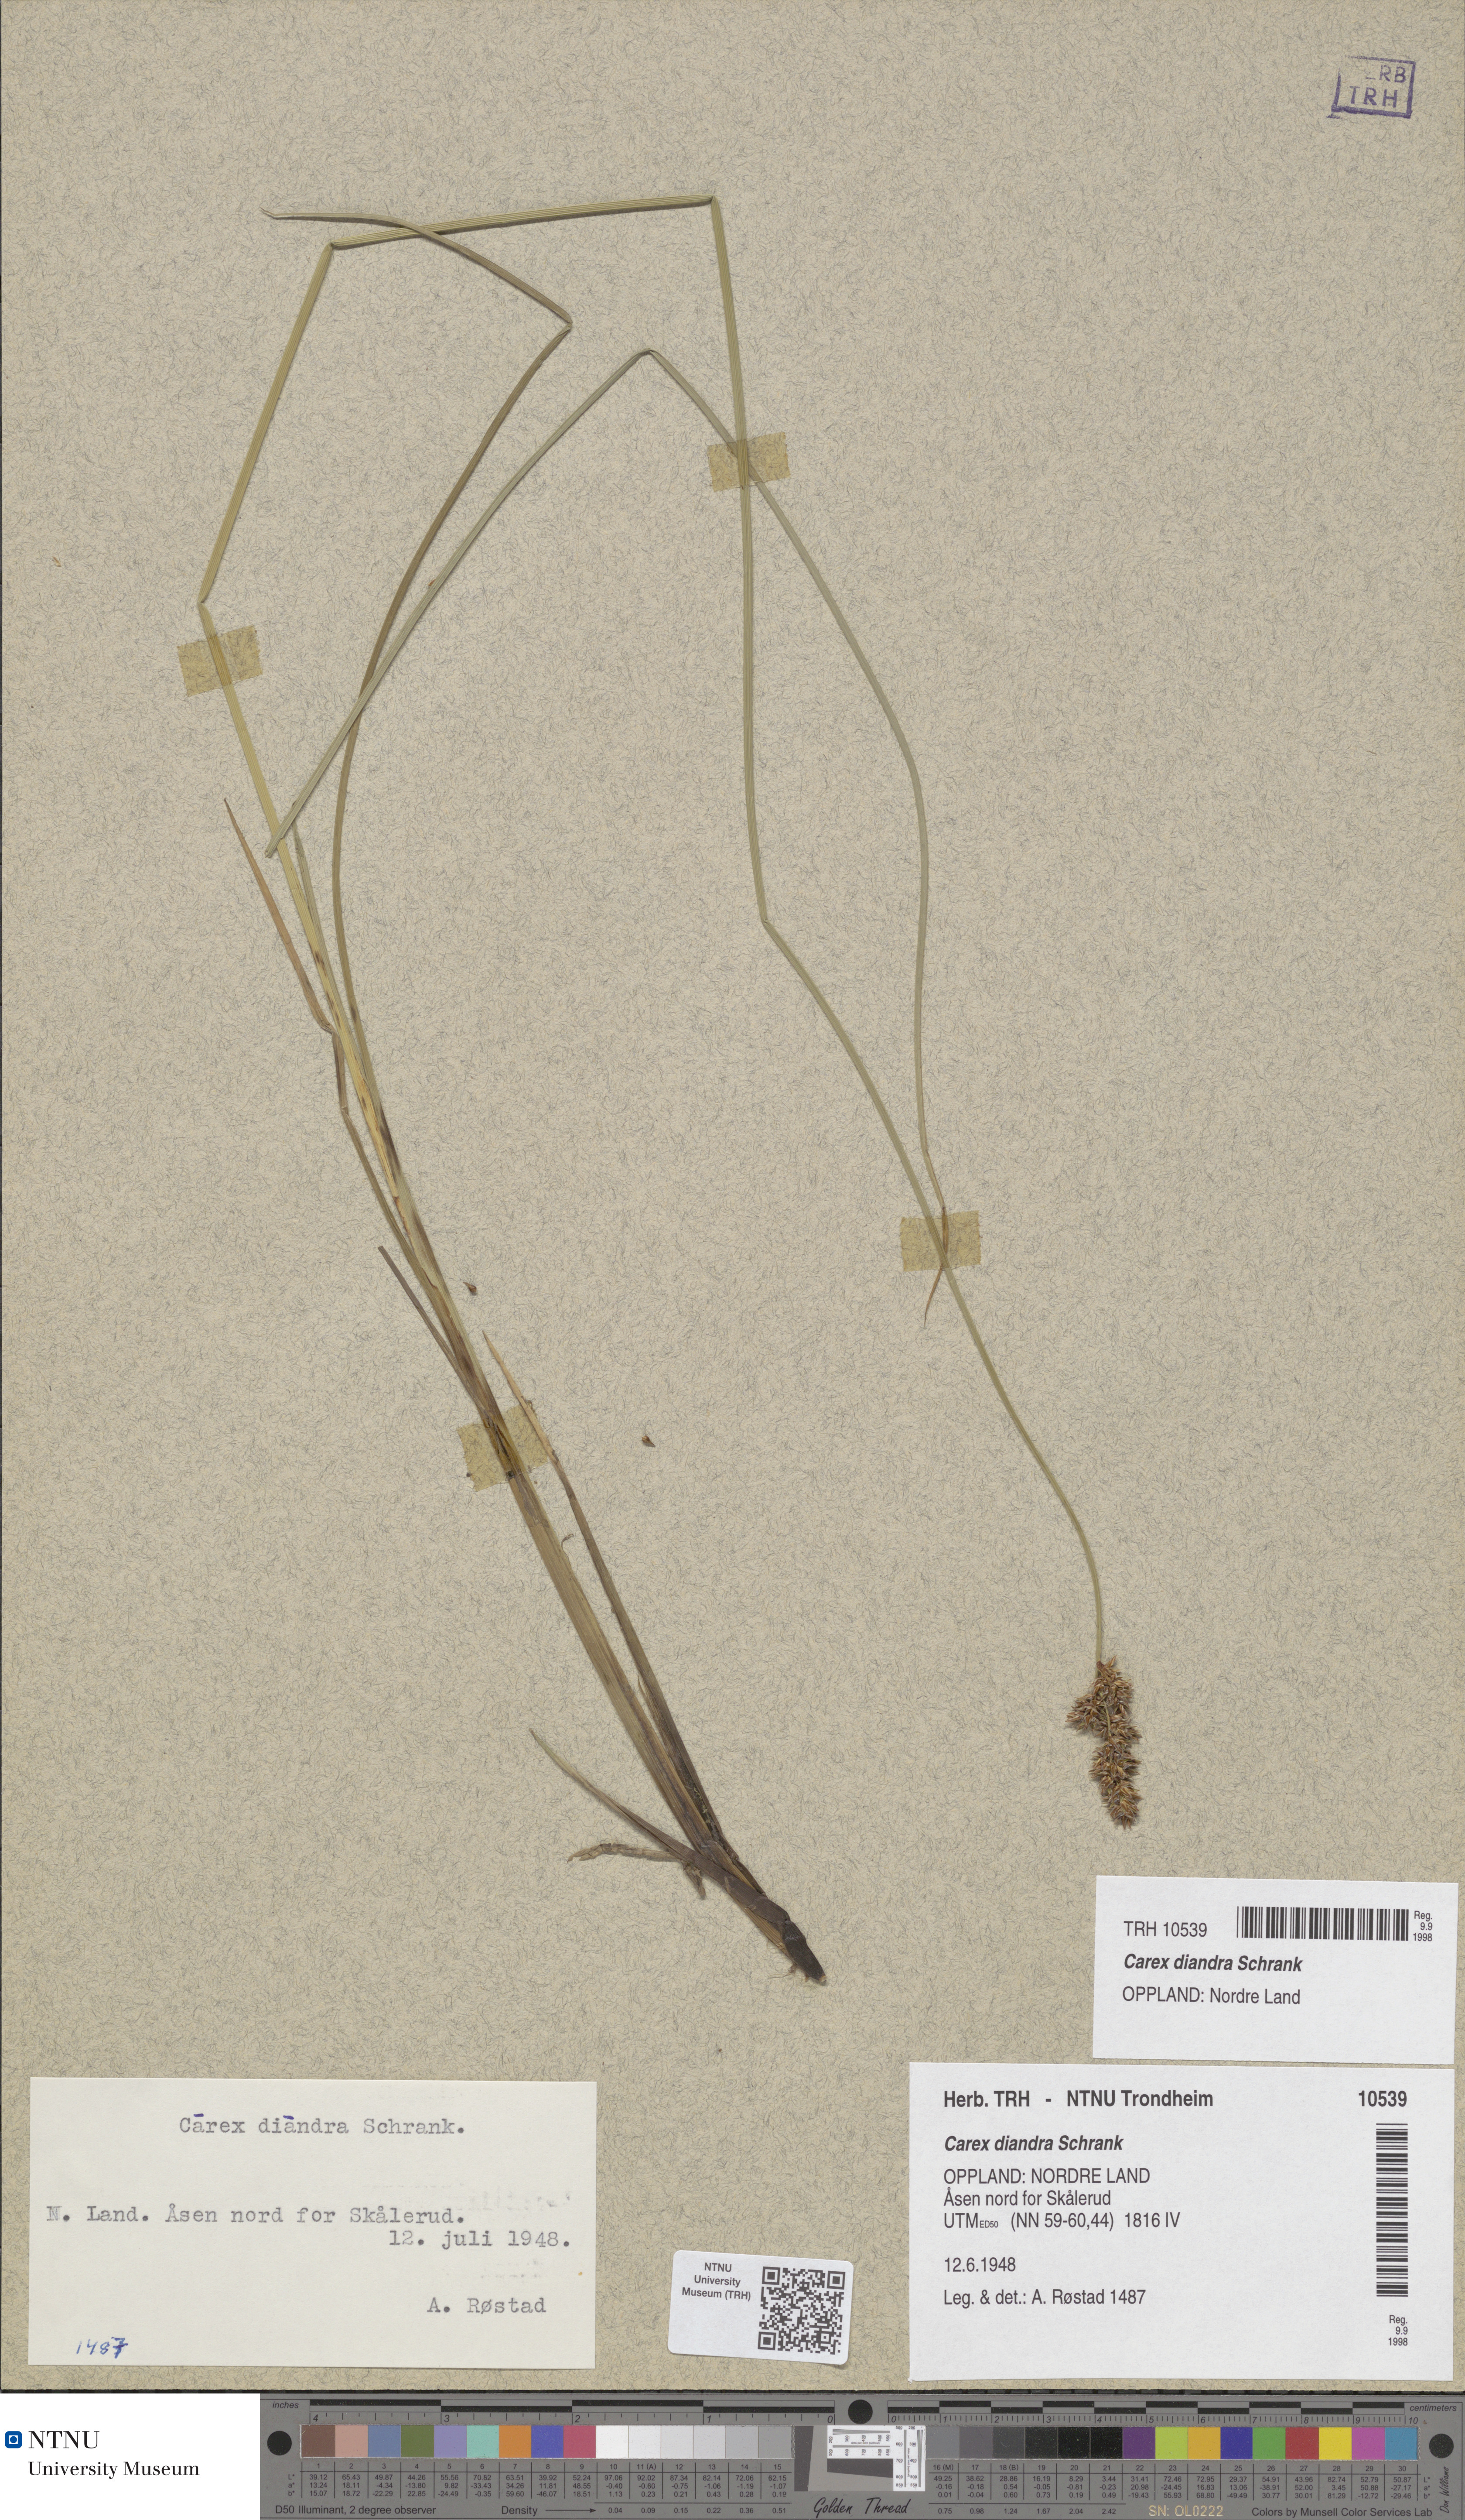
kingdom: Plantae
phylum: Tracheophyta
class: Liliopsida
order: Poales
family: Cyperaceae
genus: Carex
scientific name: Carex diandra
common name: Lesser tussock-sedge
